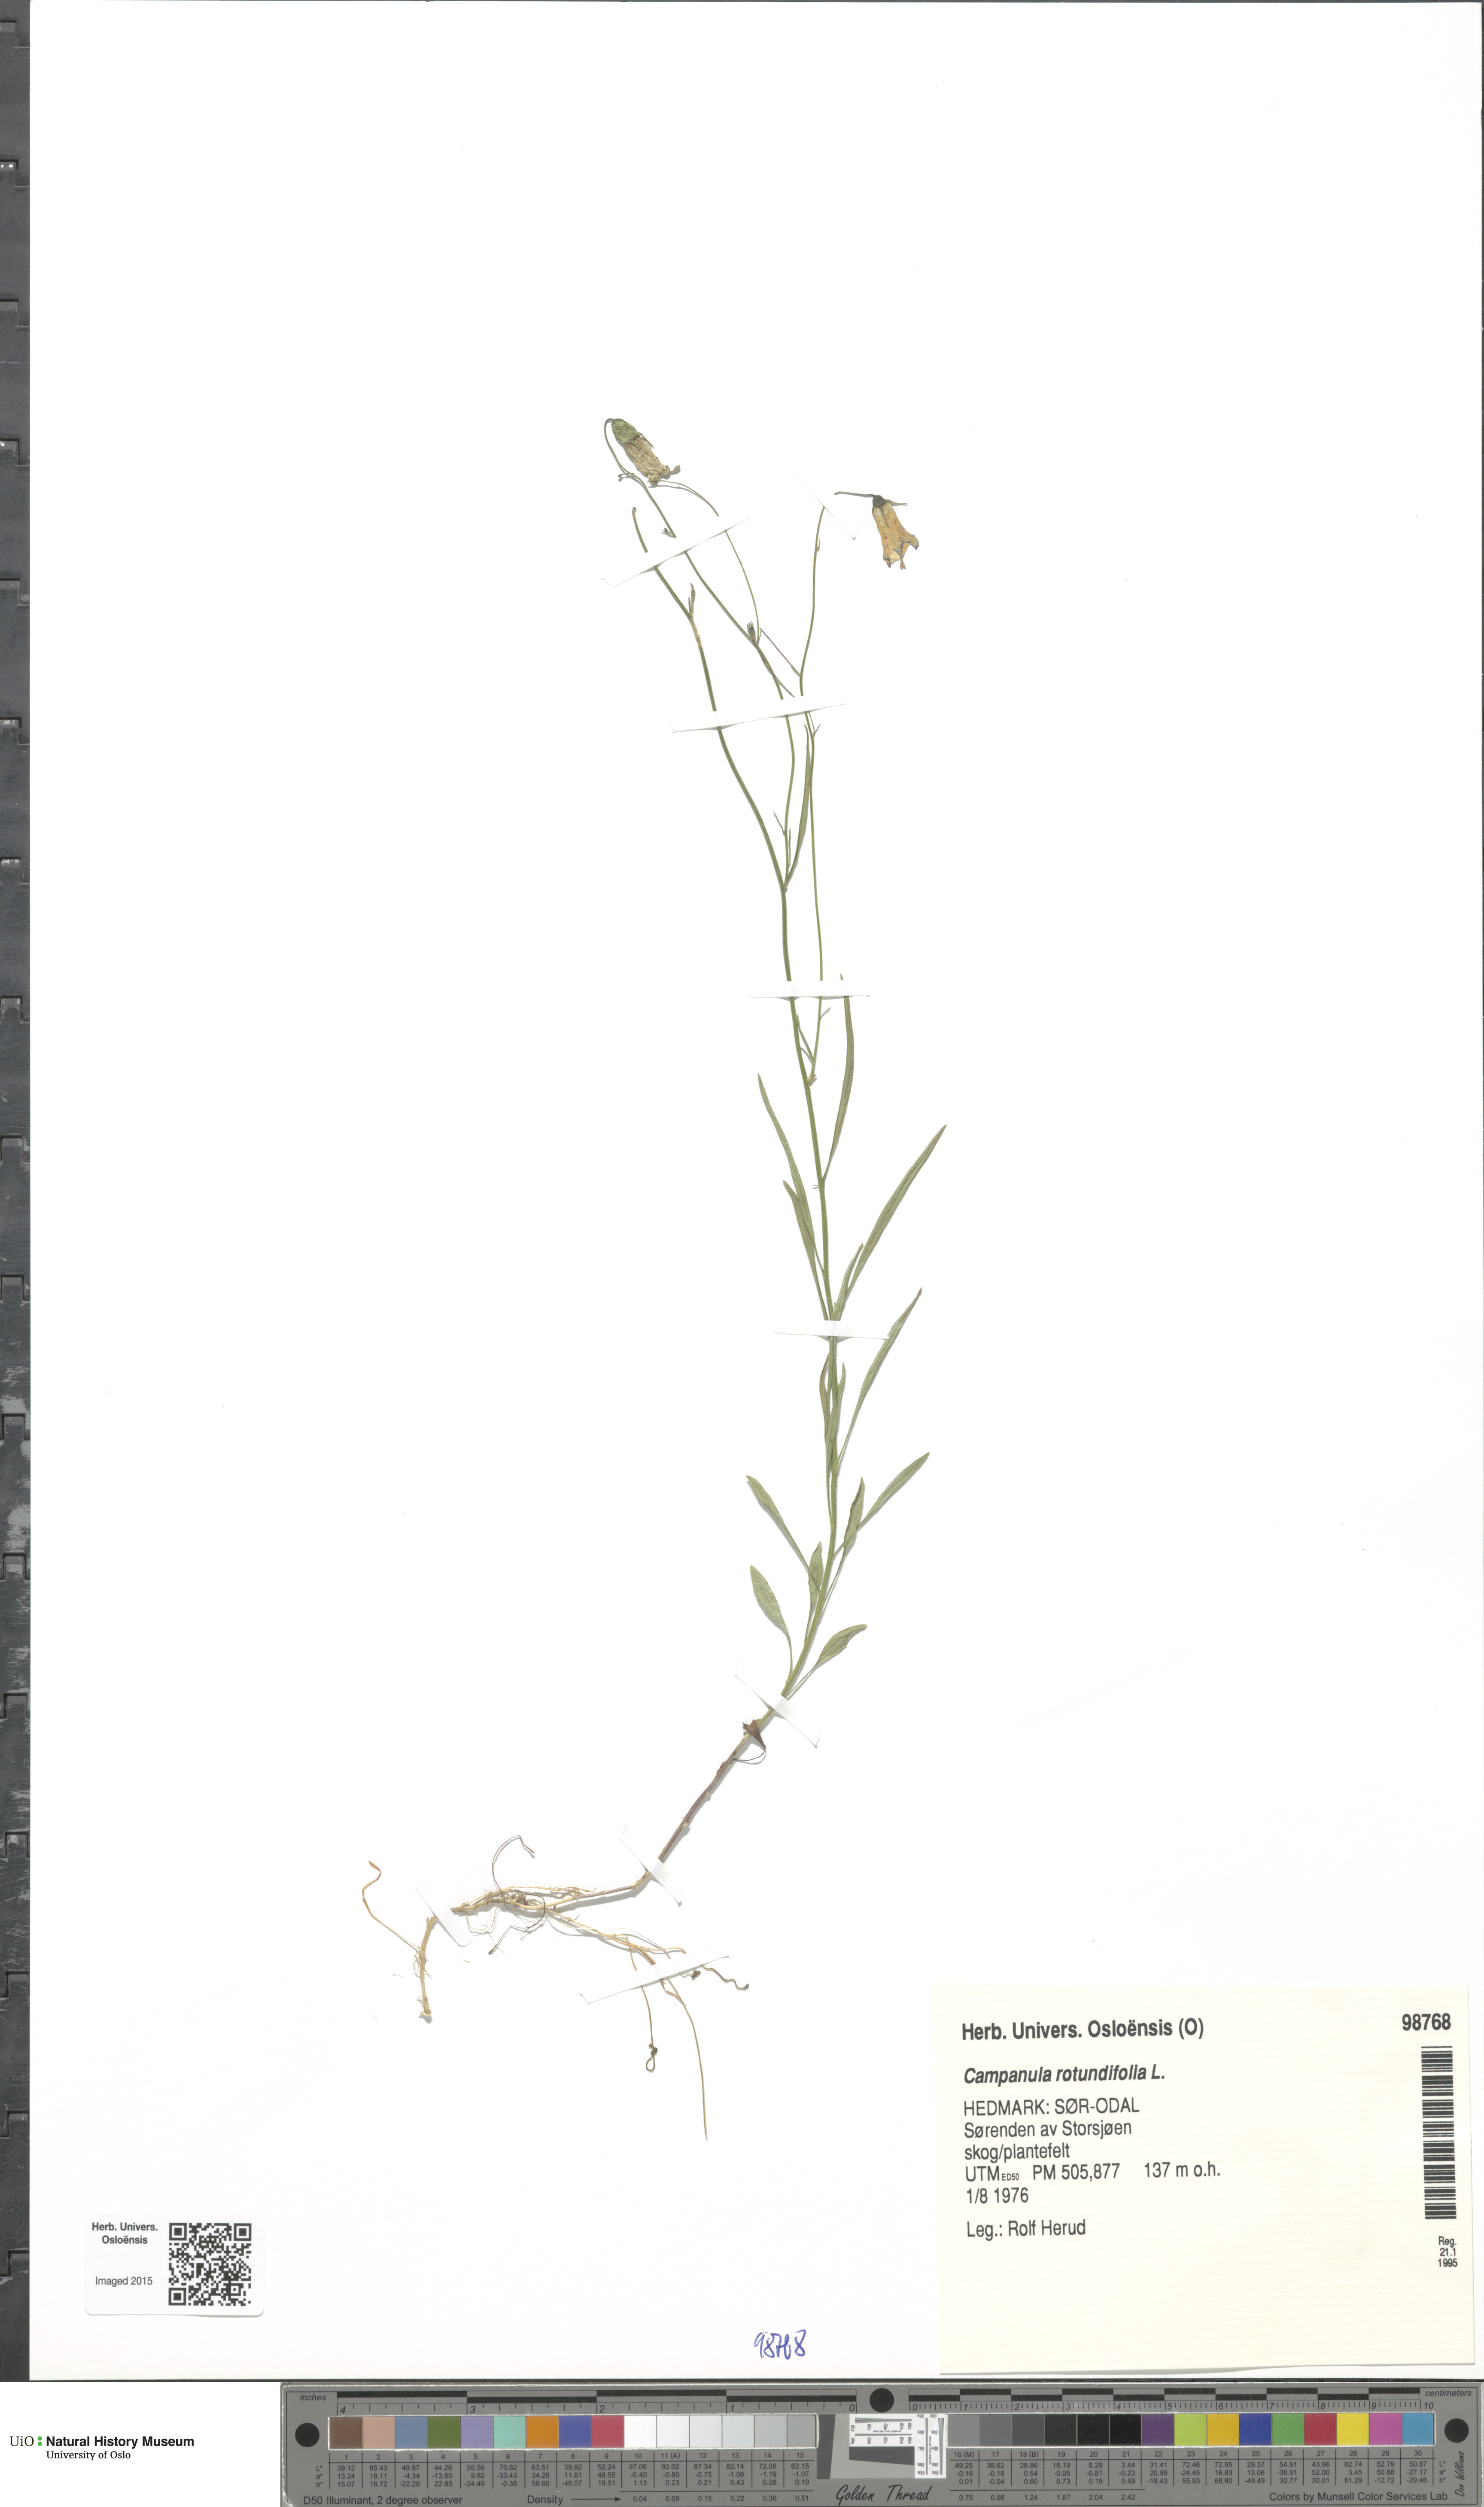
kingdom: Plantae
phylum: Tracheophyta
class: Magnoliopsida
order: Asterales
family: Campanulaceae
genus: Campanula
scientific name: Campanula rotundifolia
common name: Harebell
